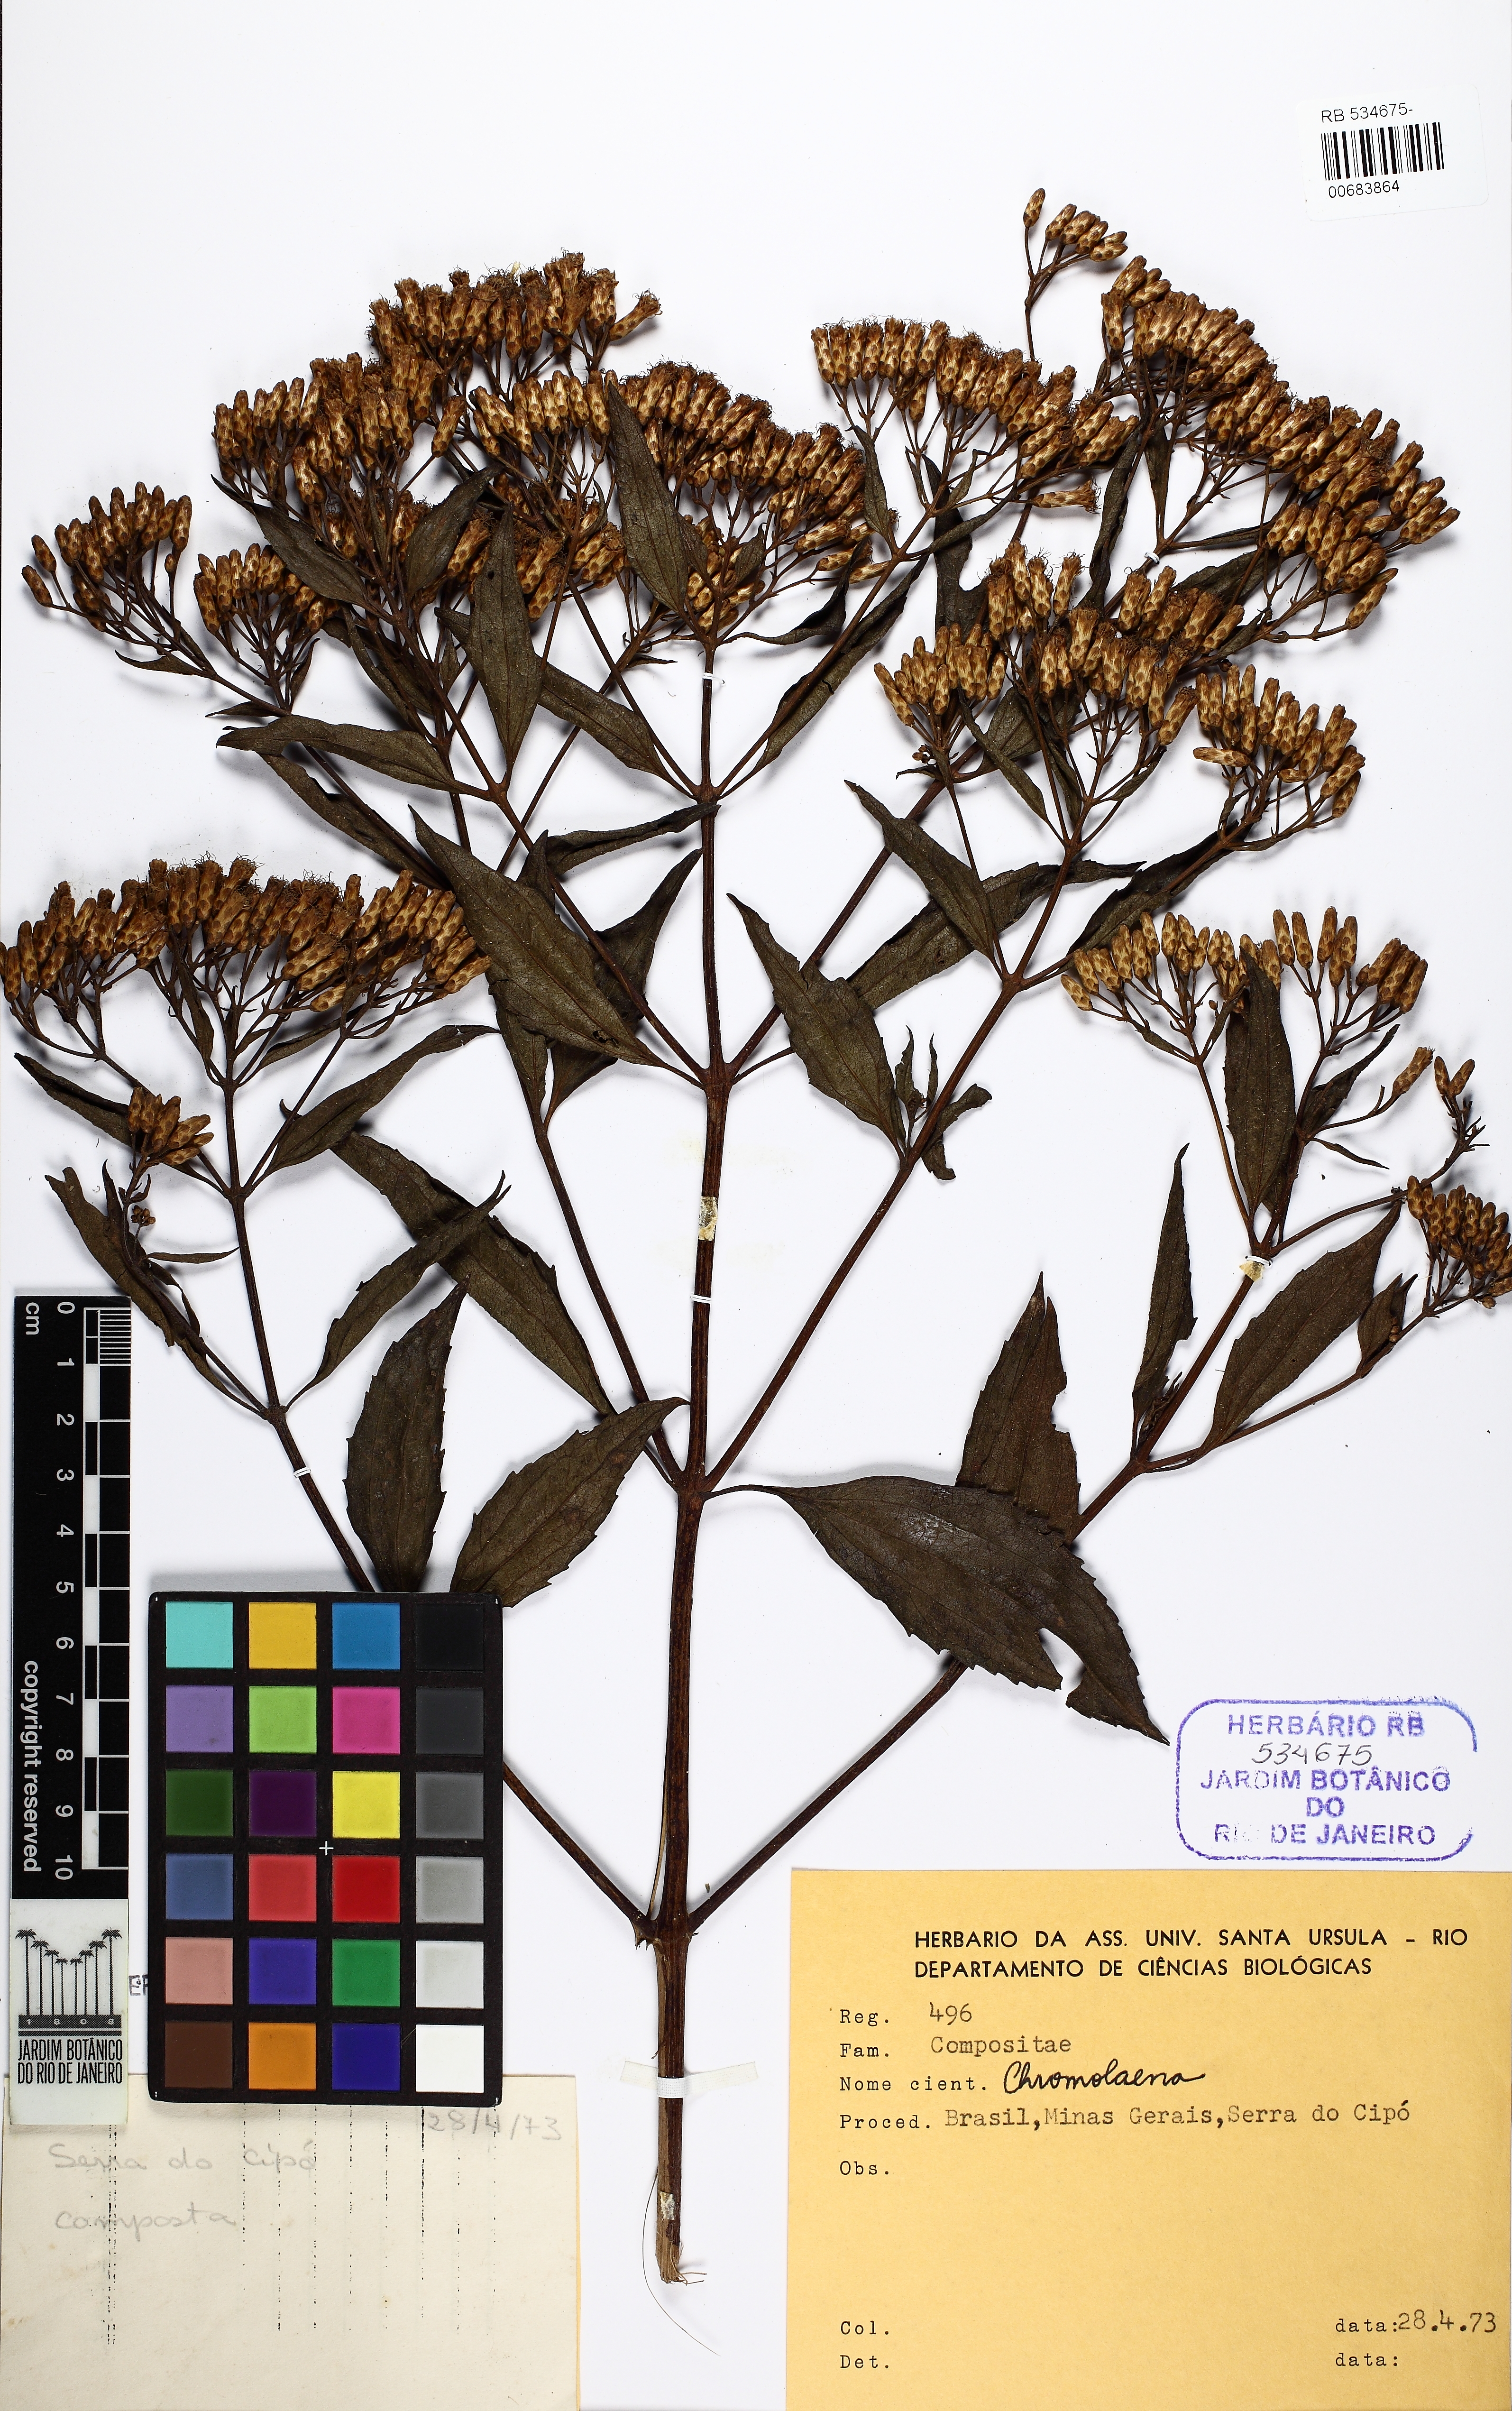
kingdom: Plantae
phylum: Tracheophyta
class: Magnoliopsida
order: Asterales
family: Asteraceae
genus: Chromolaena
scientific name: Chromolaena laevigata
